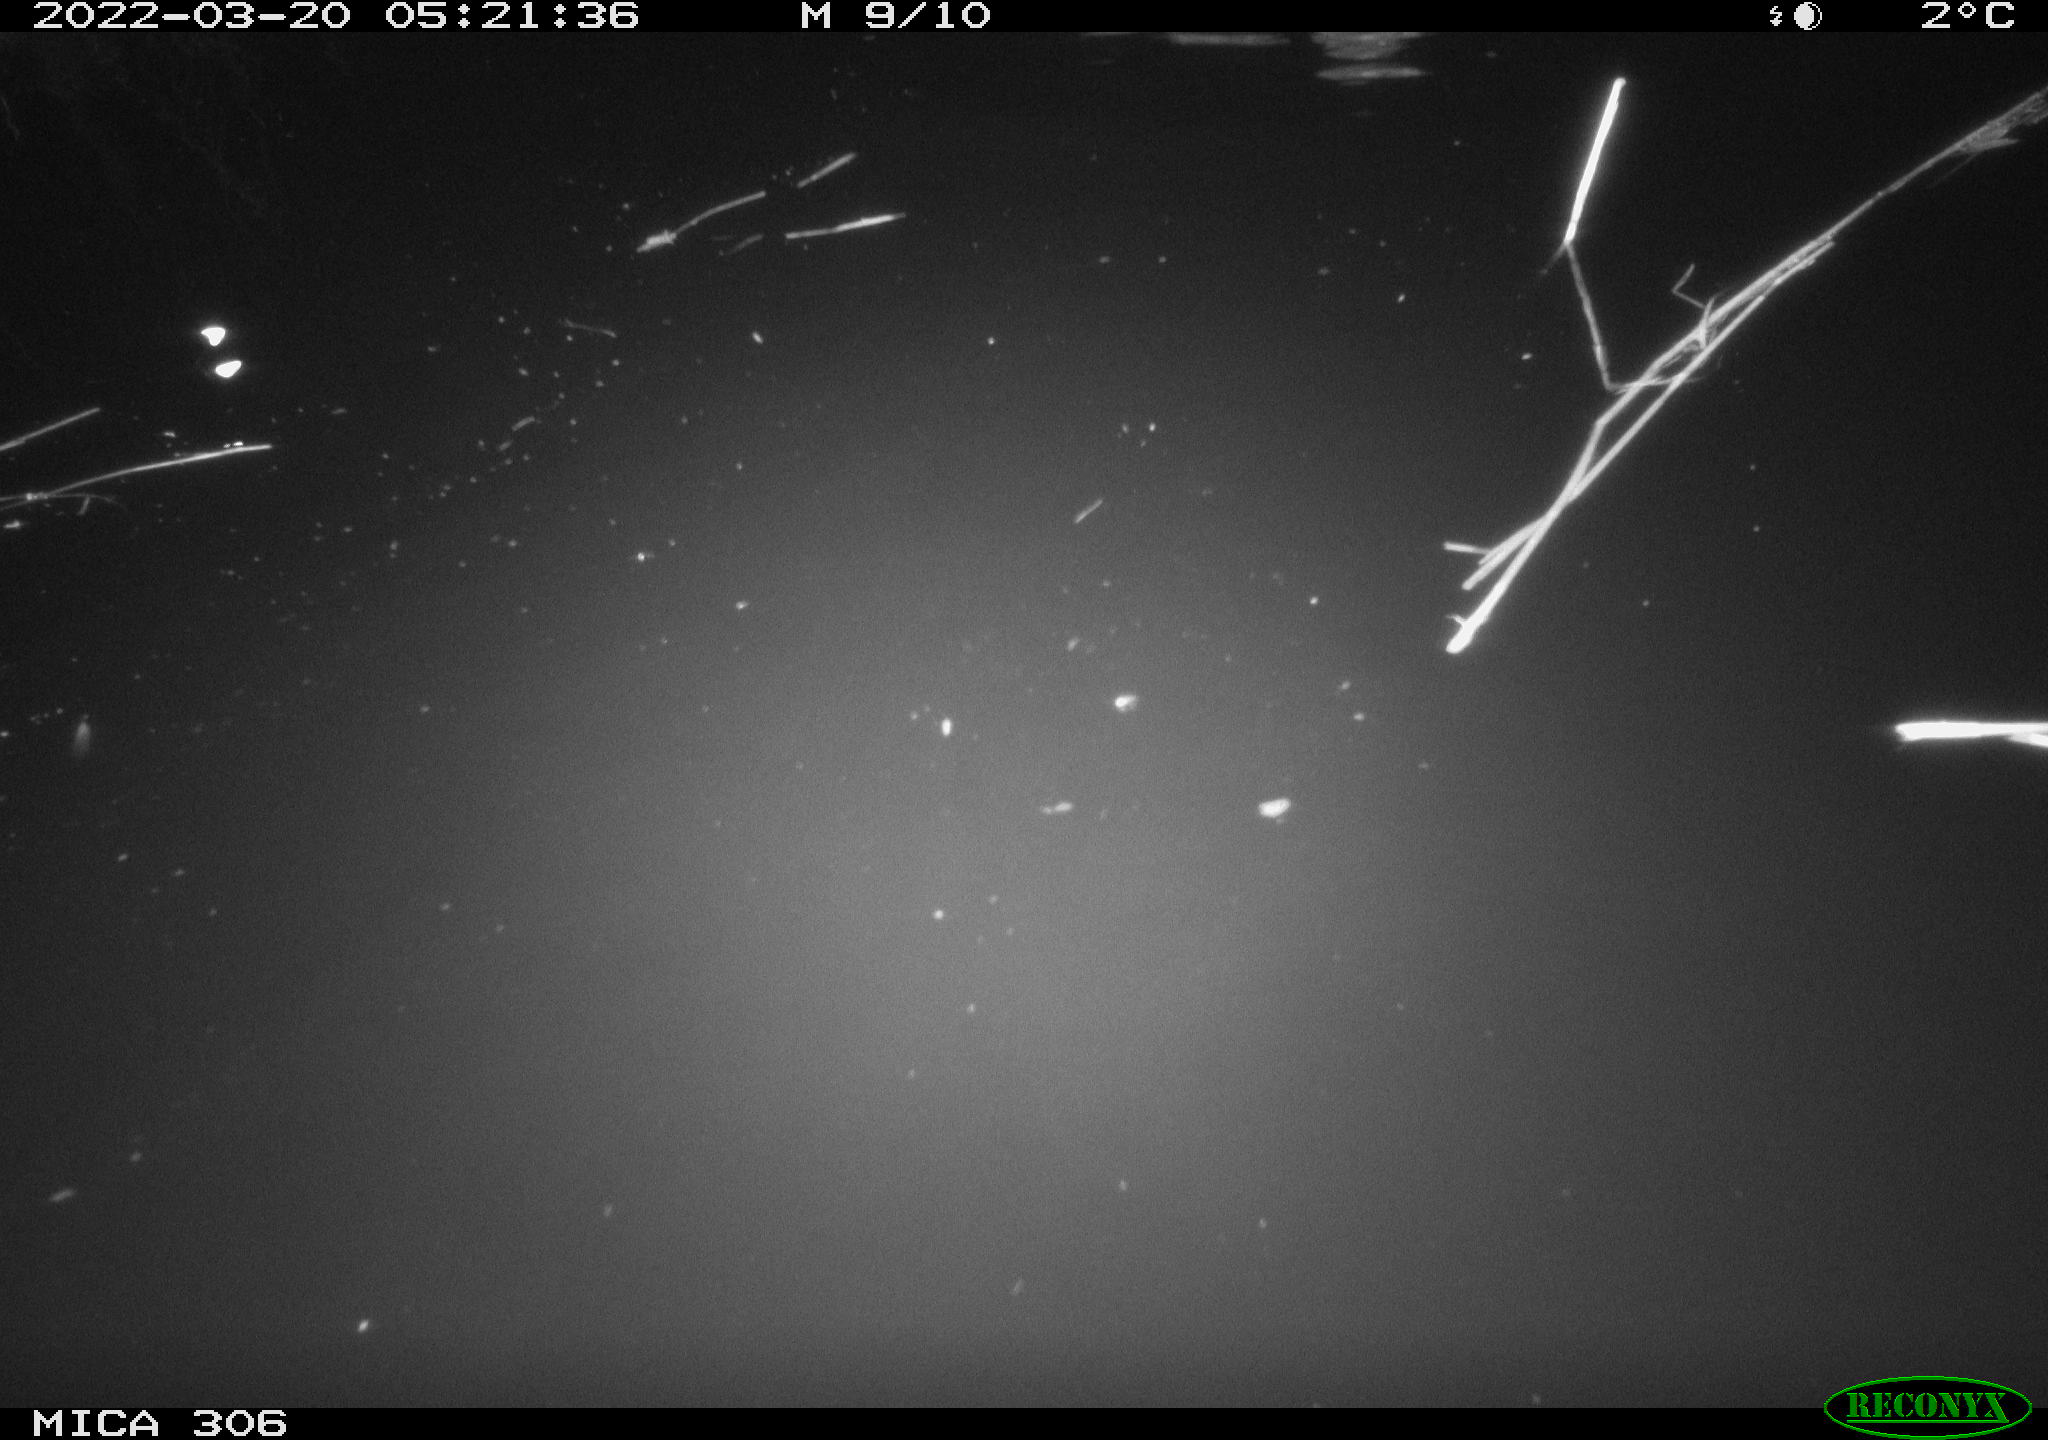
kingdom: Animalia
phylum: Chordata
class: Aves
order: Anseriformes
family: Anatidae
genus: Anas
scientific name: Anas platyrhynchos
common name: Mallard
